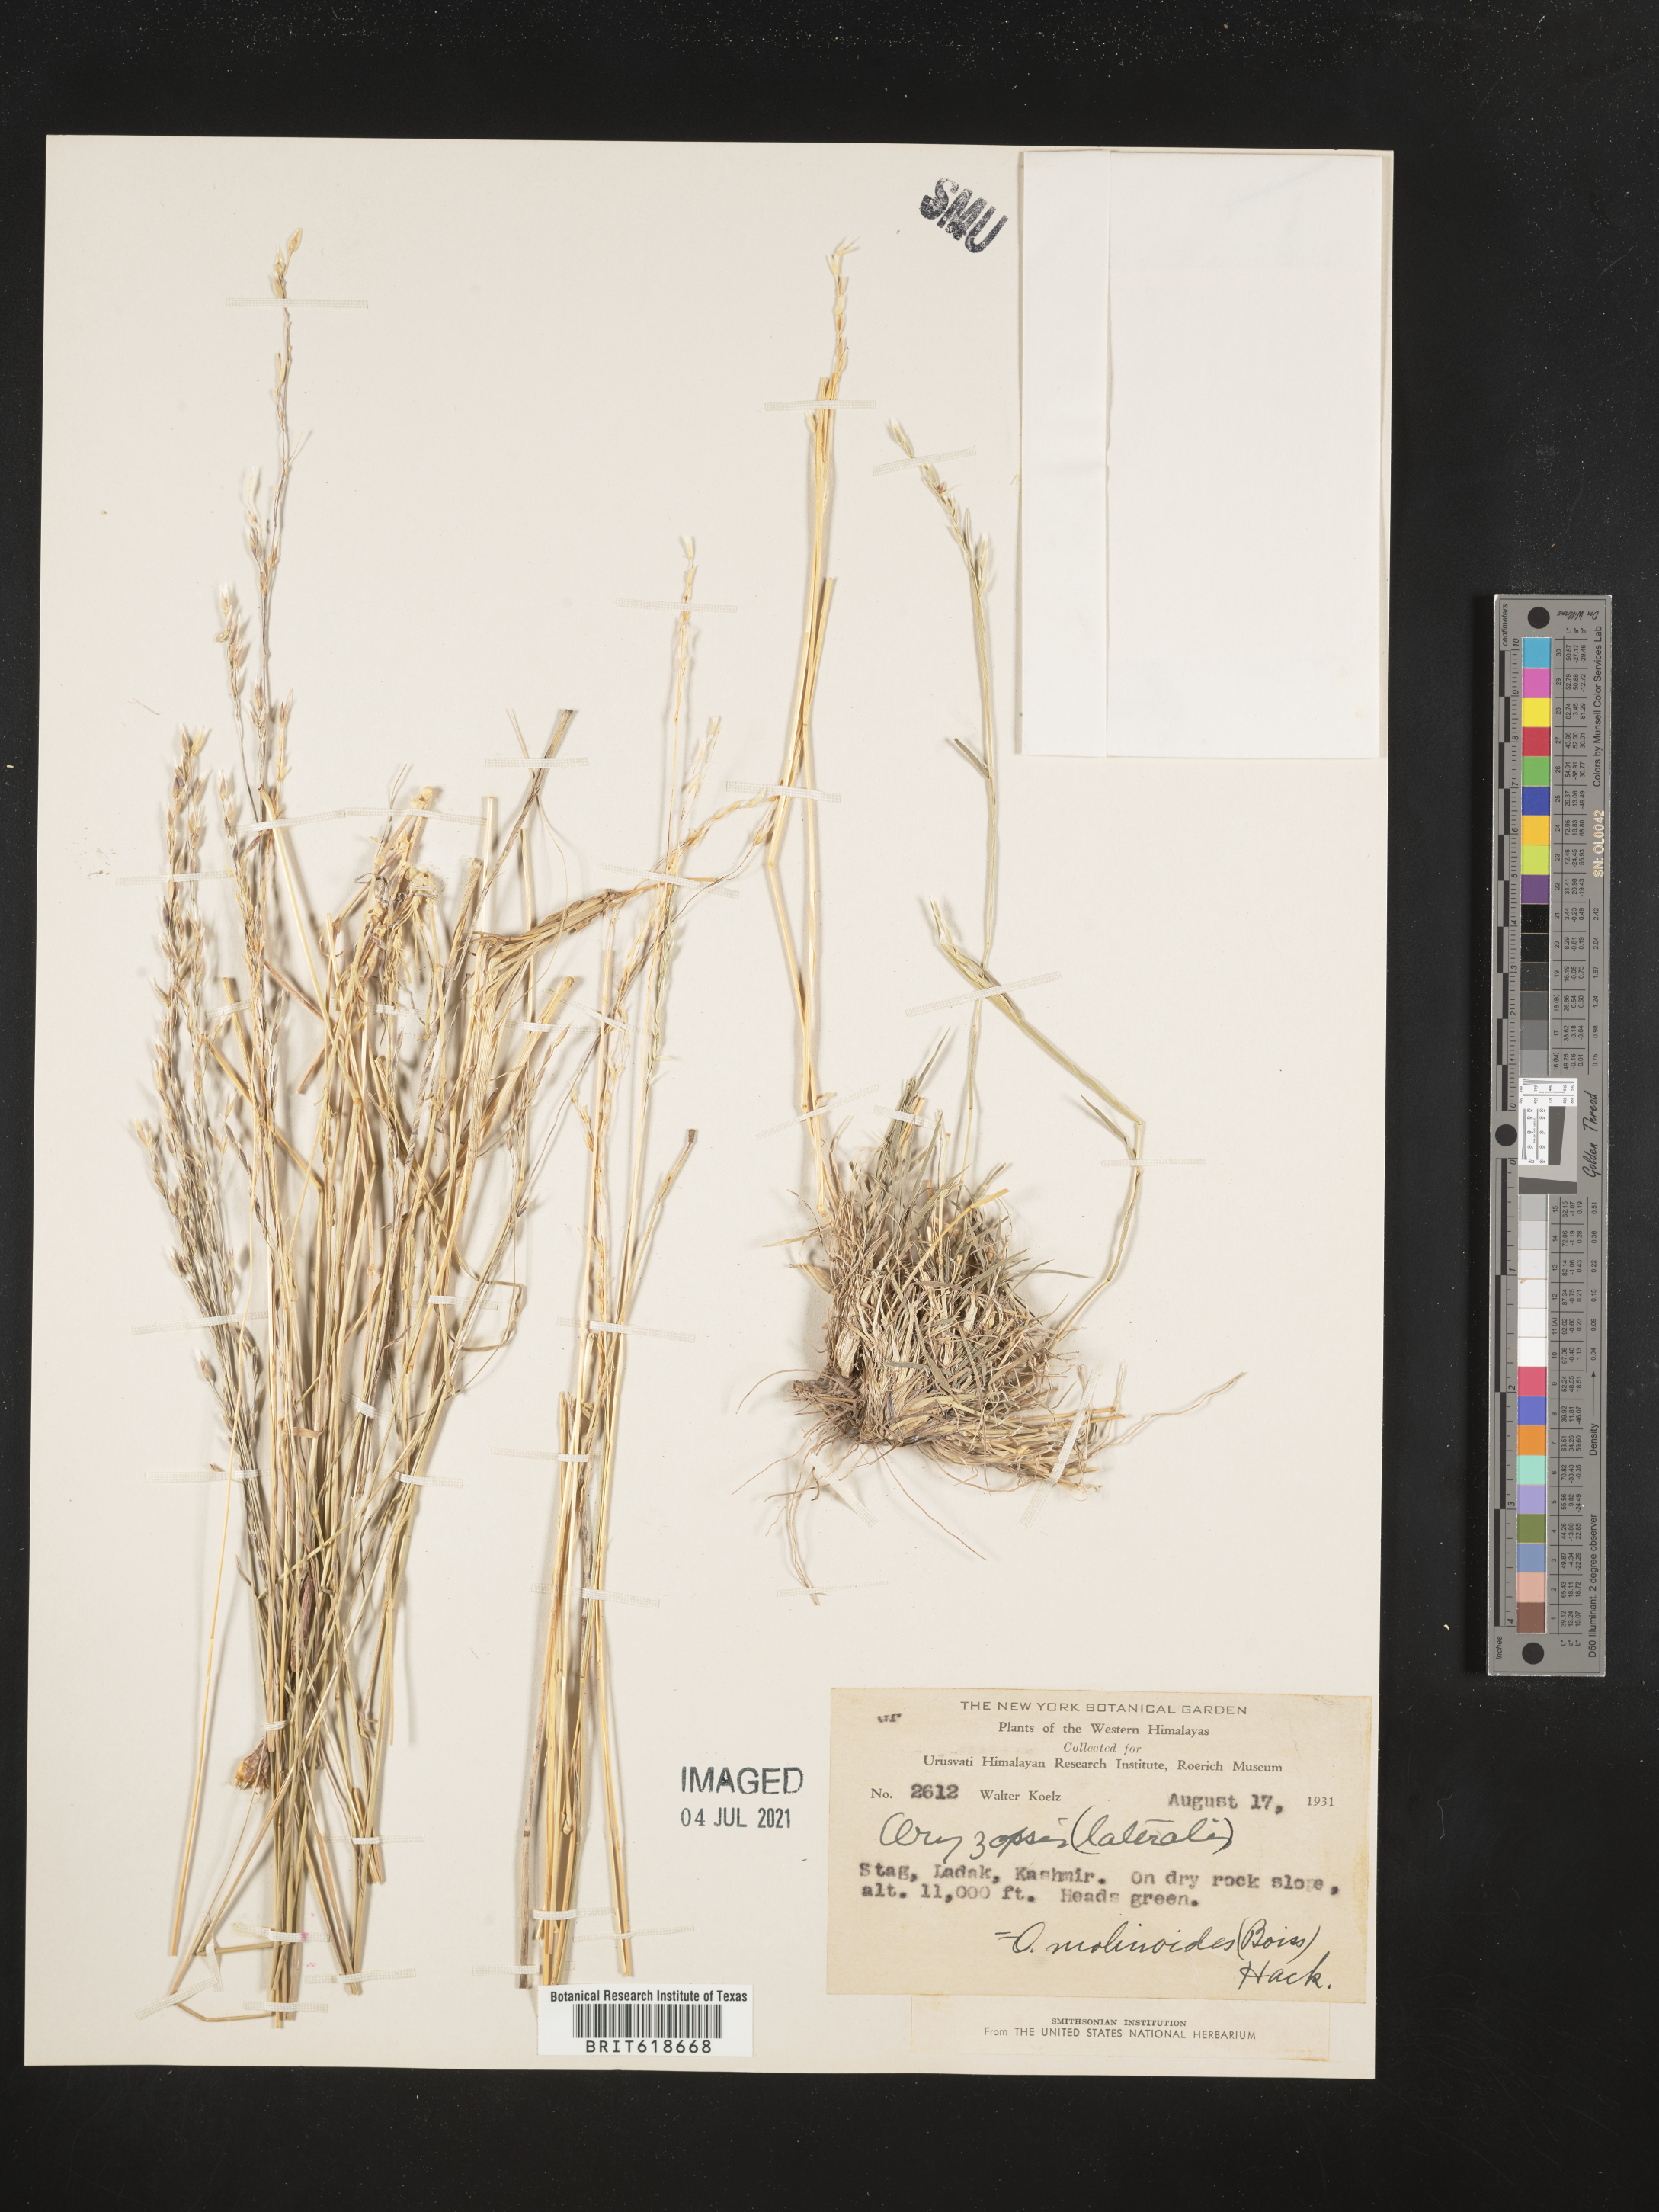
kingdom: Plantae
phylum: Tracheophyta
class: Liliopsida
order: Poales
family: Poaceae
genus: Piptatherum
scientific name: Piptatherum molinioides
